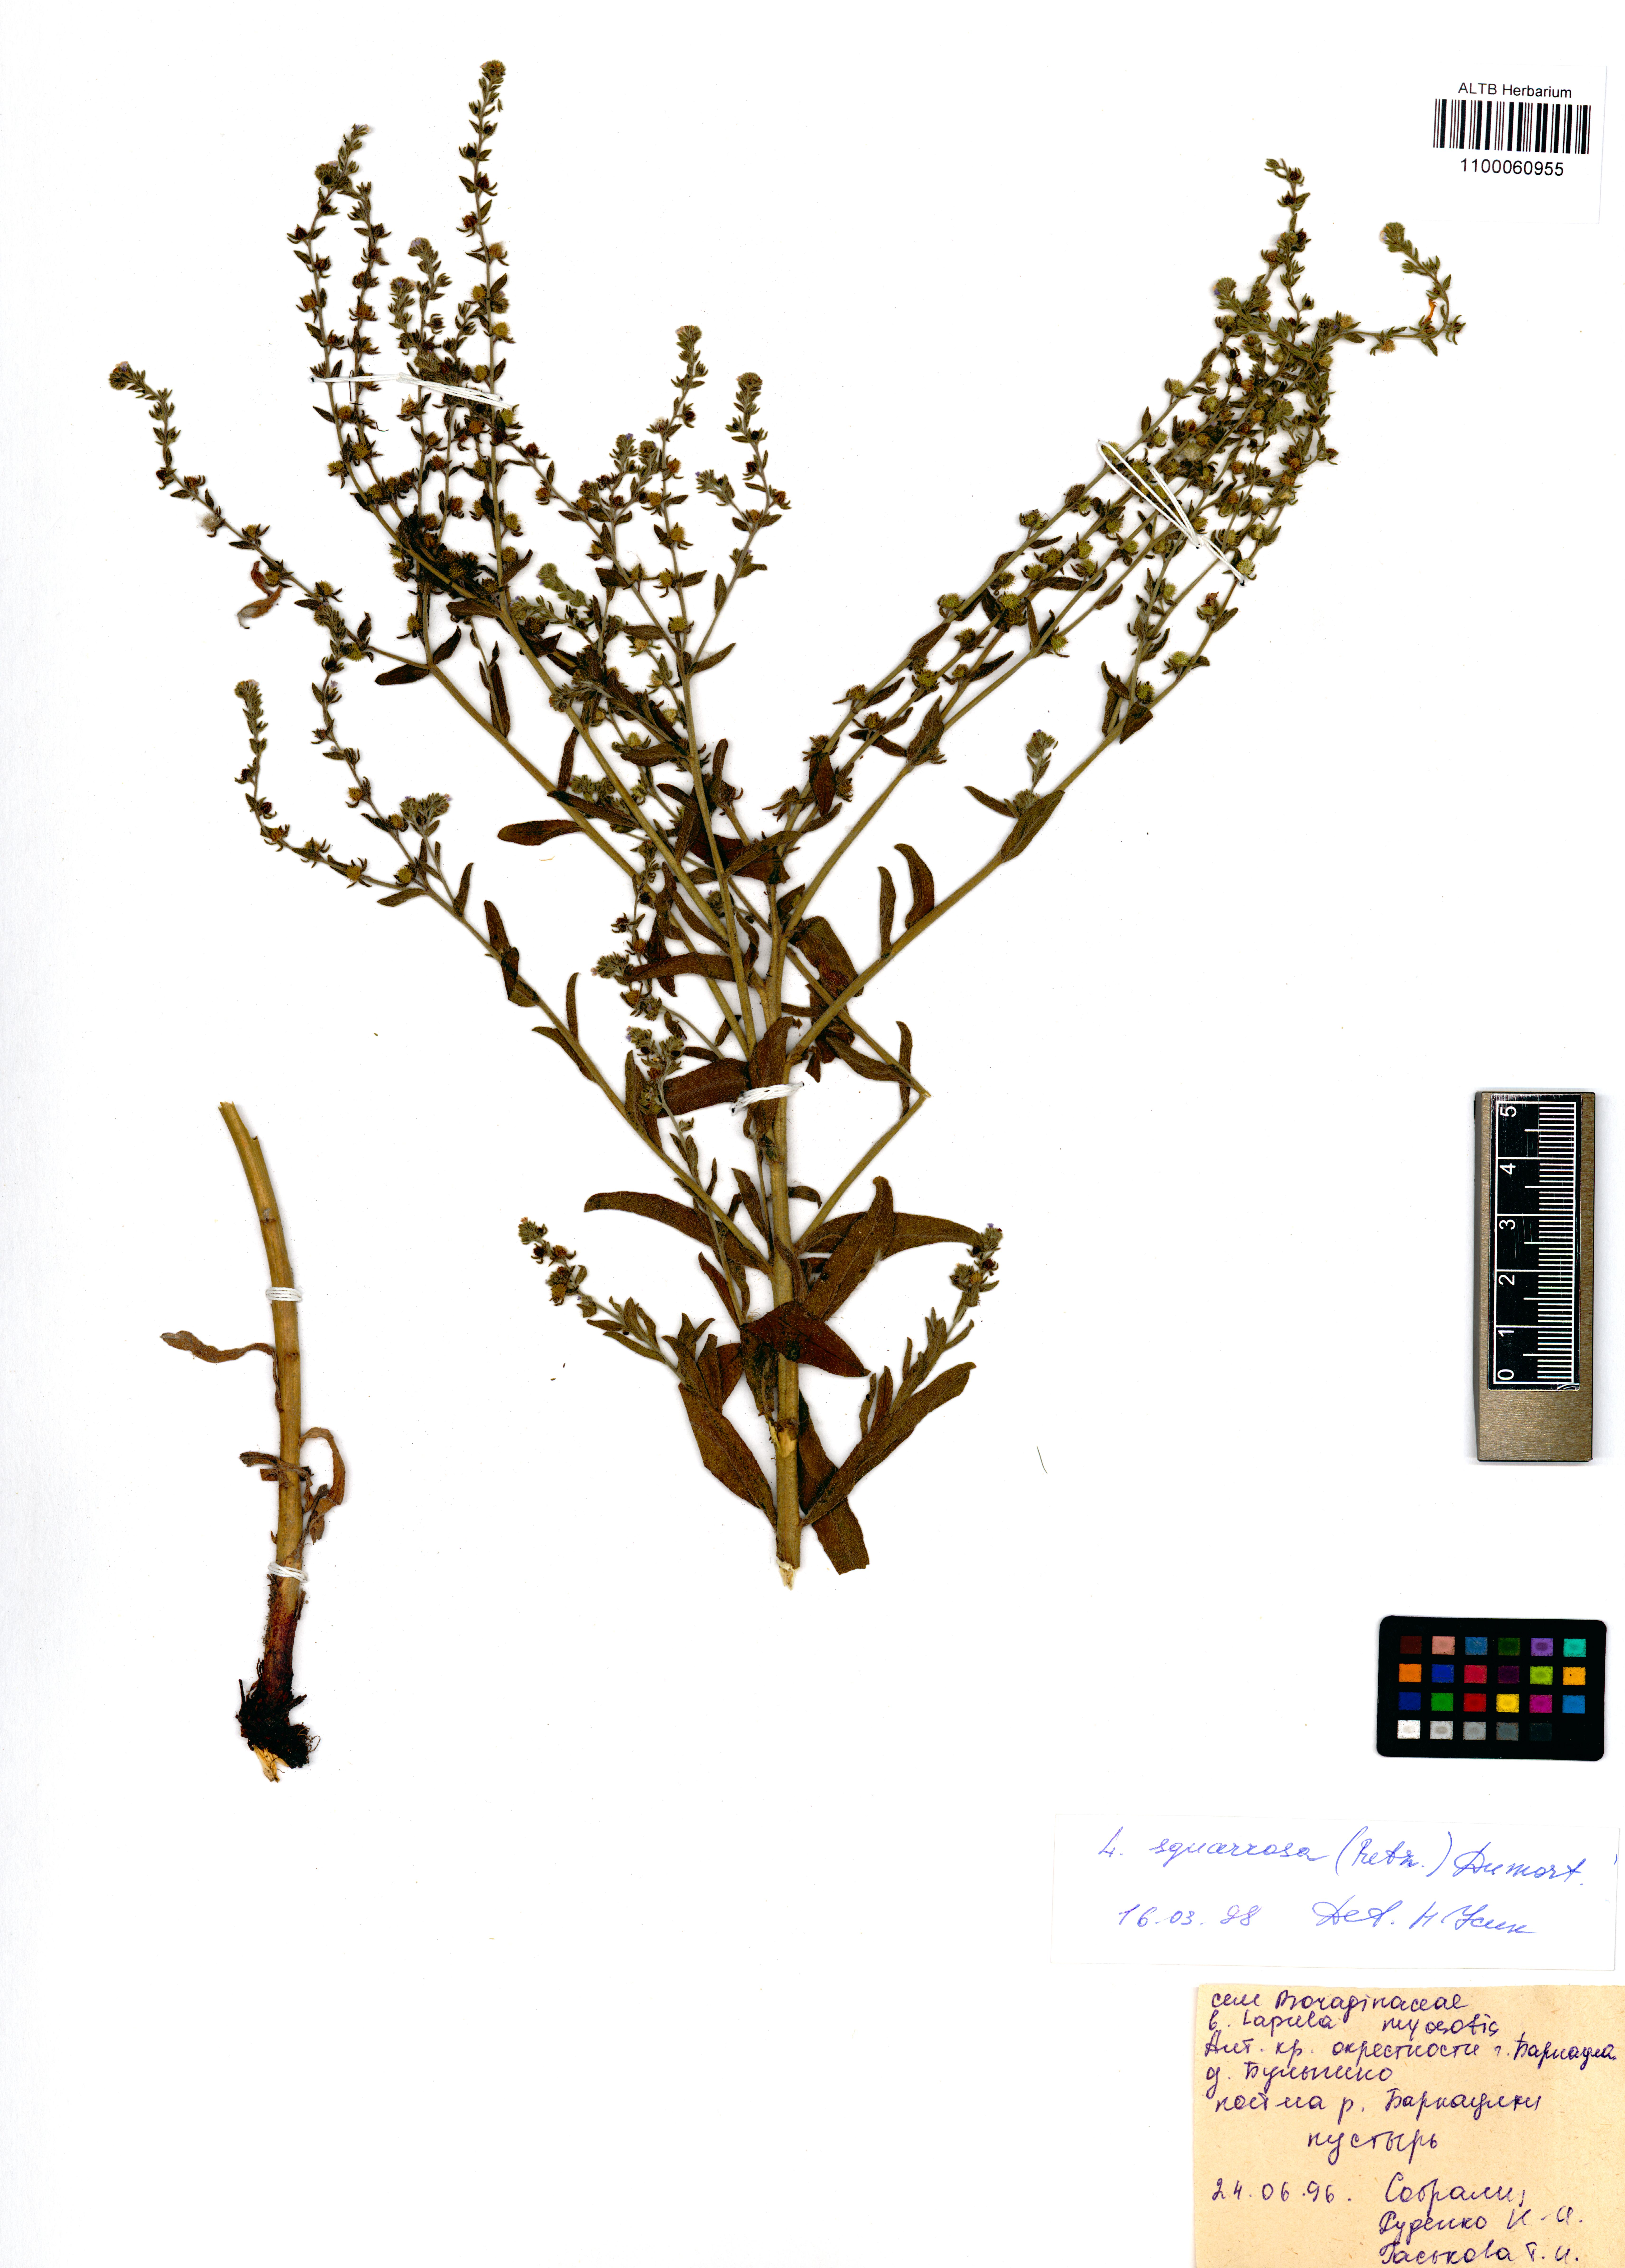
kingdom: Plantae
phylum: Tracheophyta
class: Magnoliopsida
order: Boraginales
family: Boraginaceae
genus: Lappula
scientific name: Lappula squarrosa
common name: European stickseed
